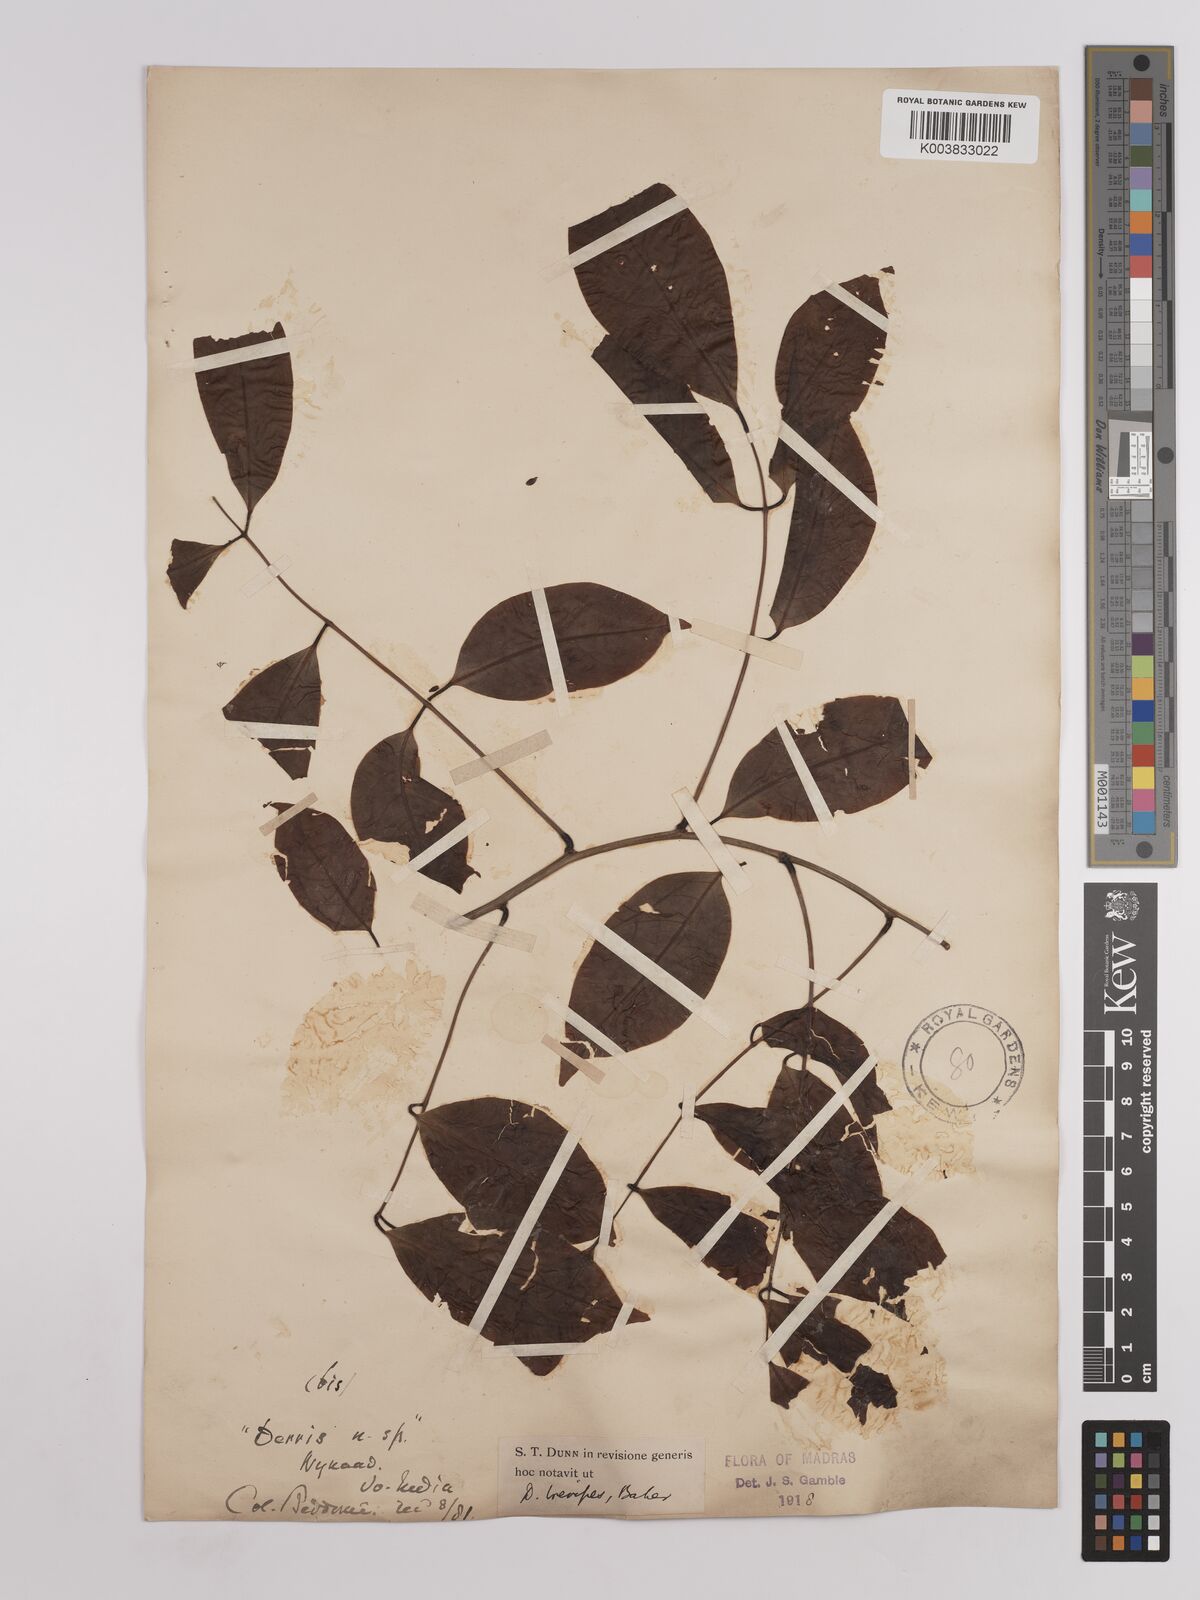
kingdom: Plantae
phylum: Tracheophyta
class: Magnoliopsida
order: Fabales
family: Fabaceae
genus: Derris
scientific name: Derris brevipes
